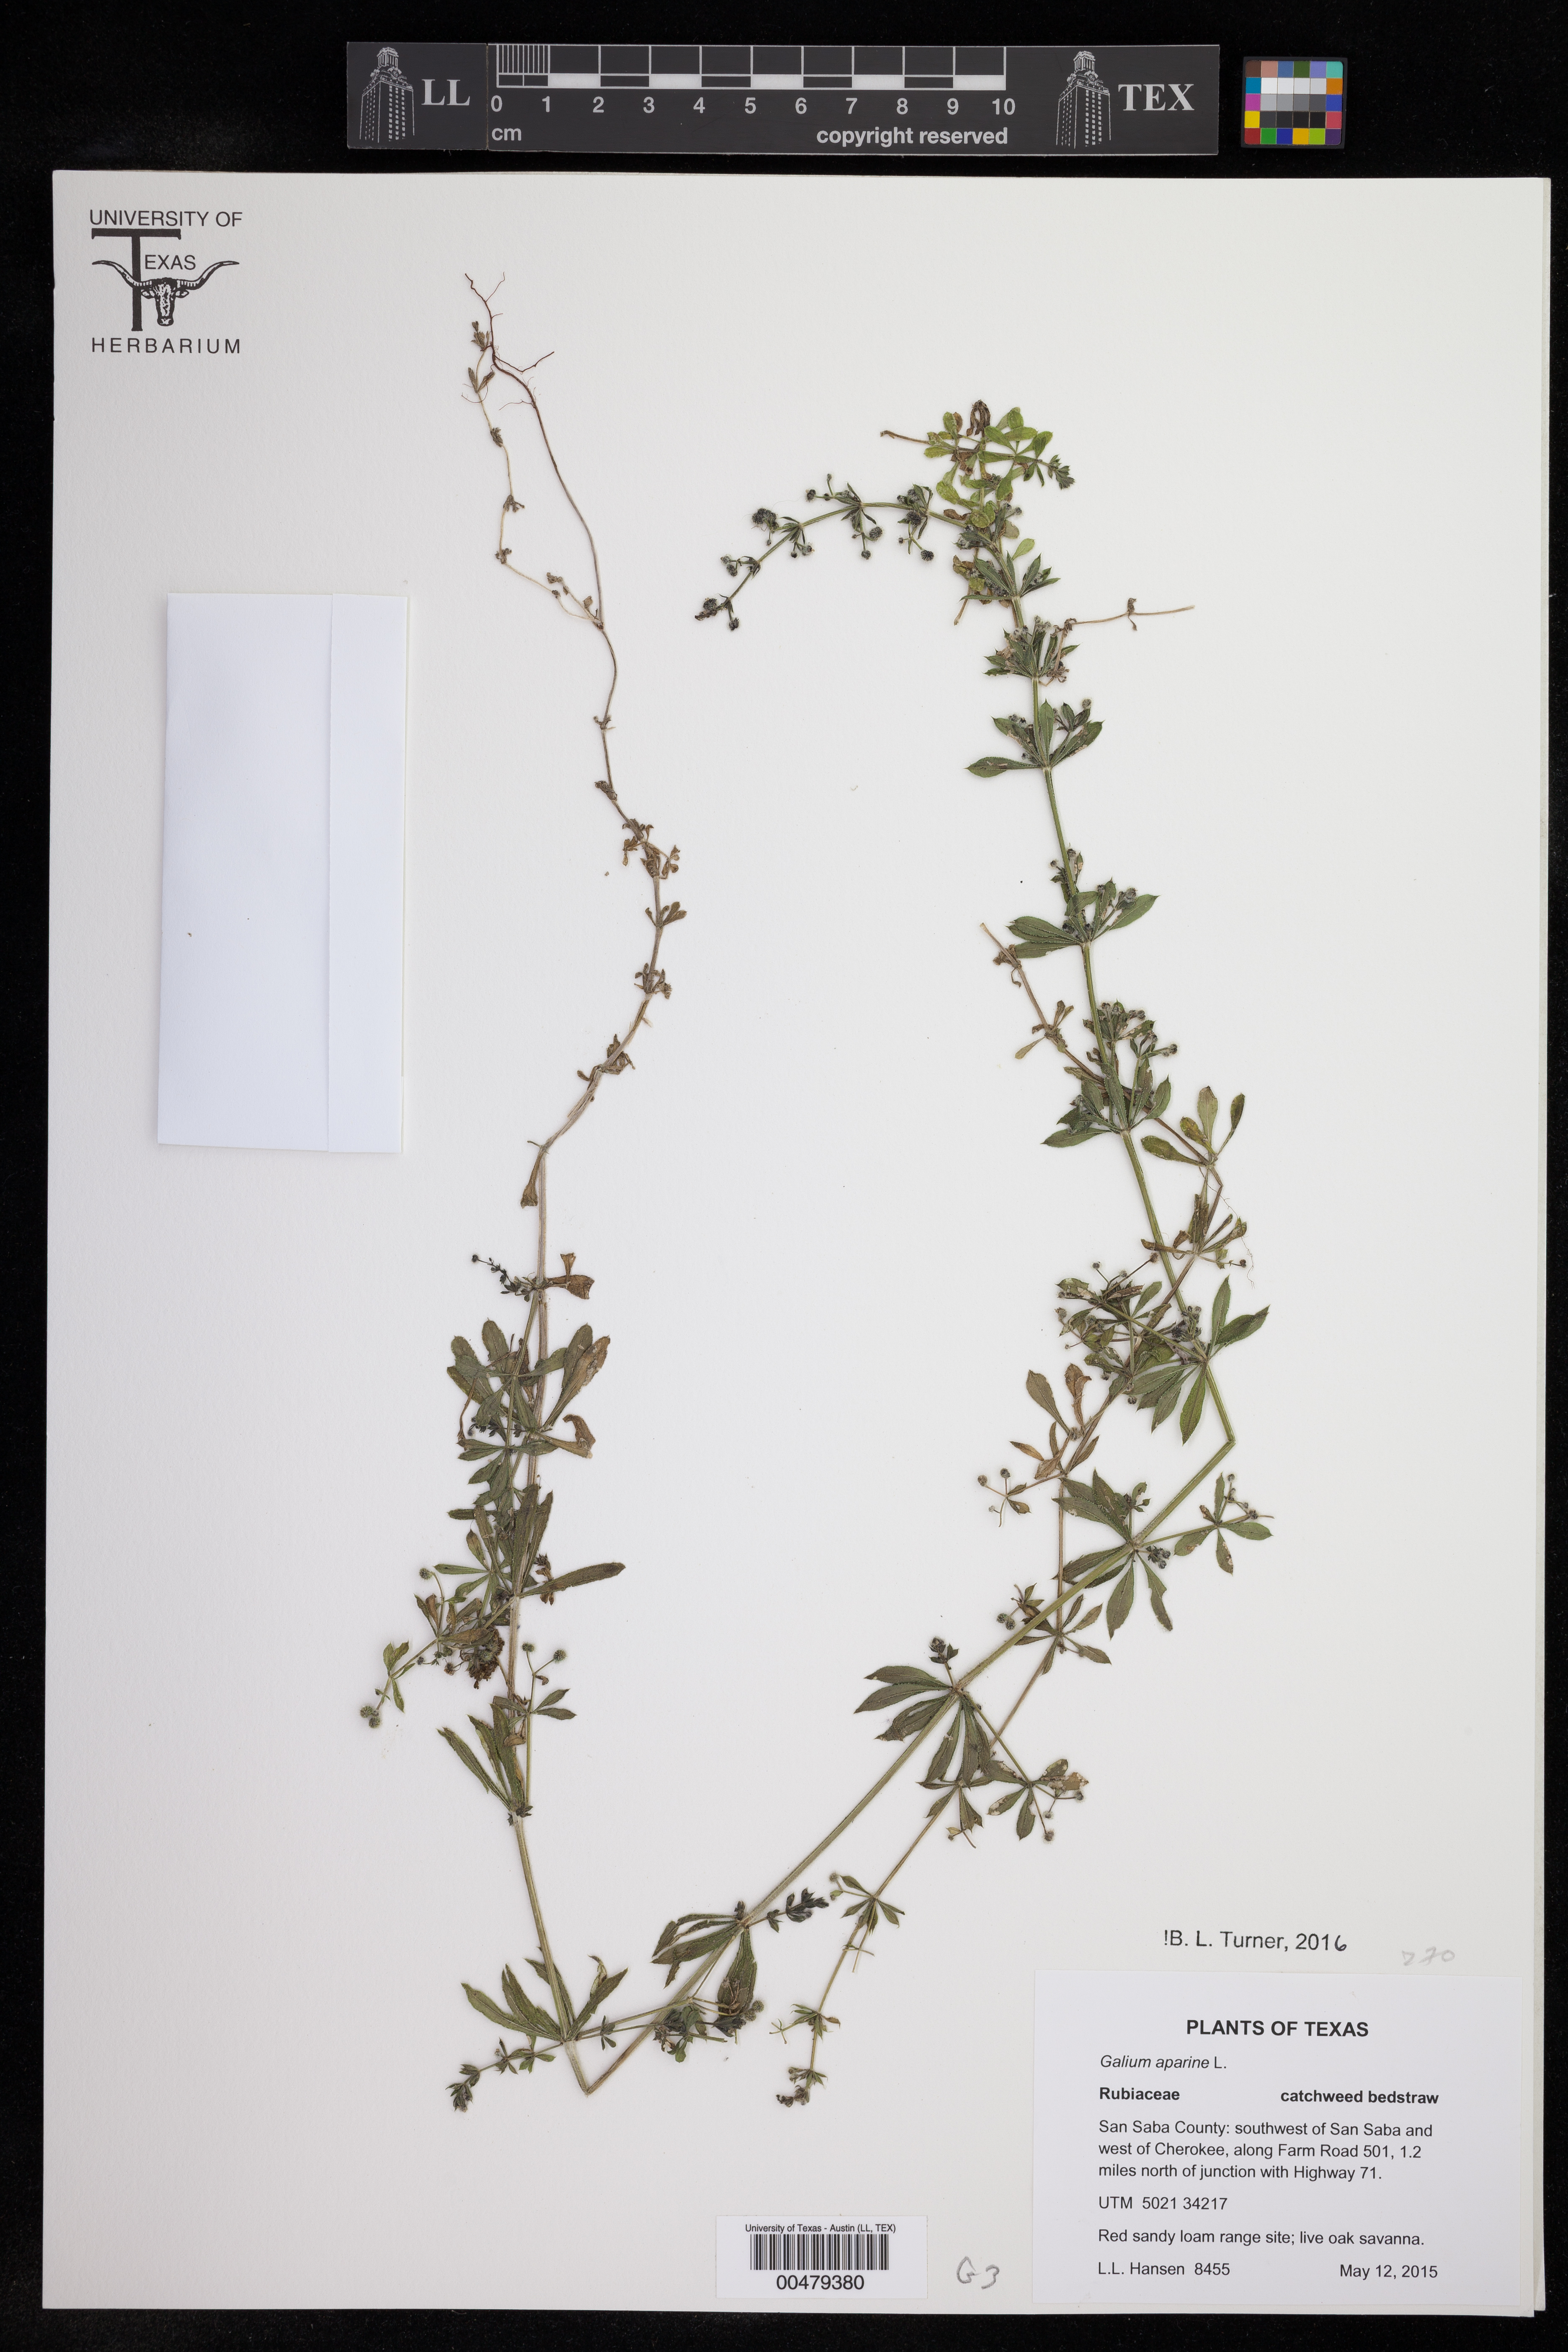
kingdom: Plantae
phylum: Tracheophyta
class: Magnoliopsida
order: Gentianales
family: Rubiaceae
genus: Galium
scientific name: Galium aparine
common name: Cleavers
